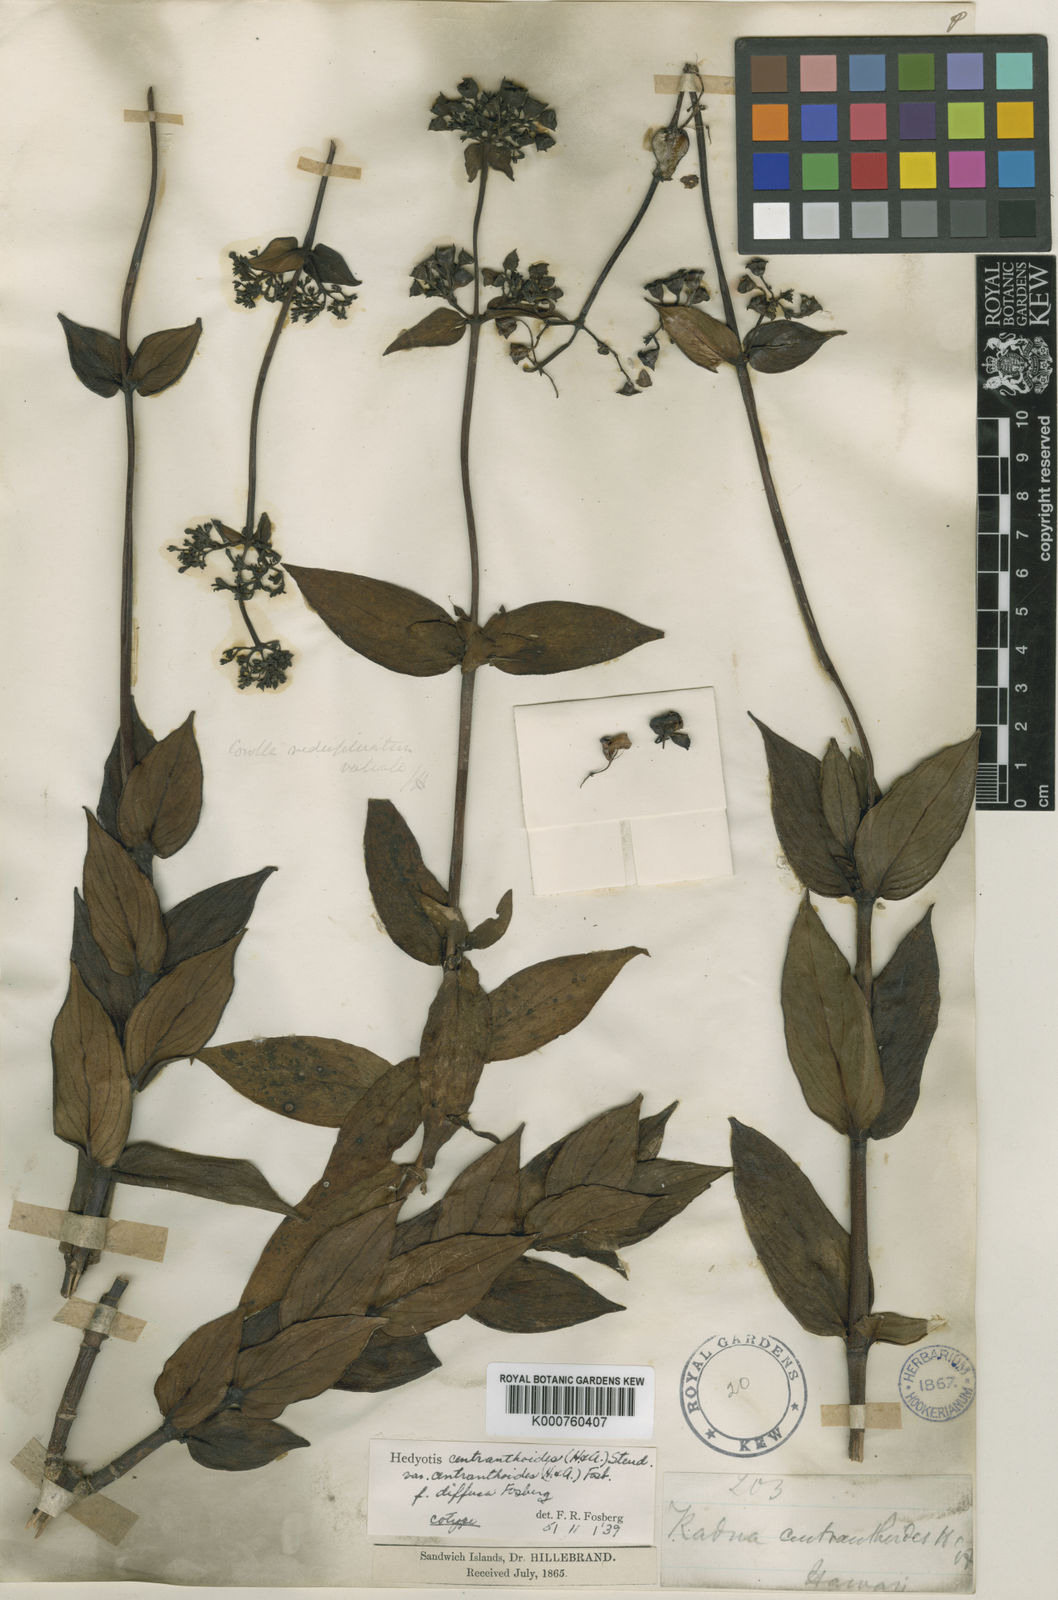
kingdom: Plantae
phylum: Tracheophyta
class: Magnoliopsida
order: Gentianales
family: Rubiaceae
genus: Kadua
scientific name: Kadua centranthoides
